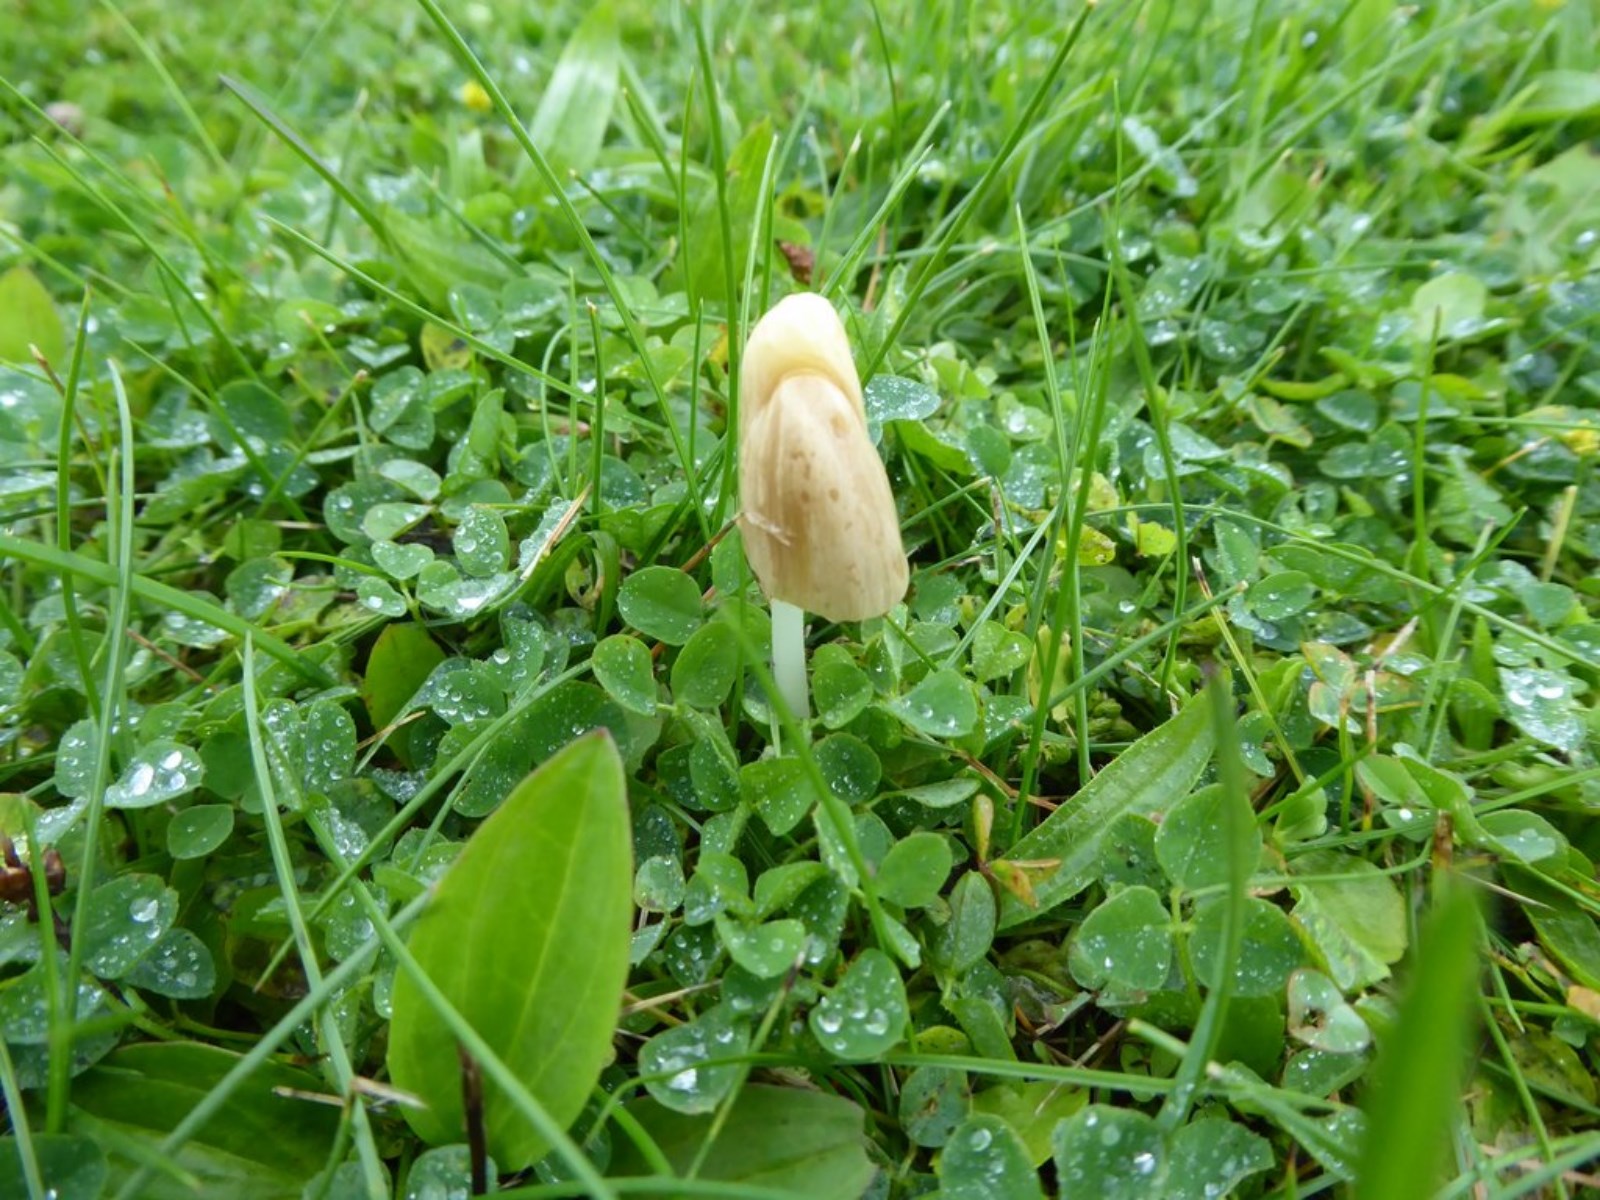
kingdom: Fungi
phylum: Basidiomycota
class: Agaricomycetes
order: Agaricales
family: Bolbitiaceae
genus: Conocybe
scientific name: Conocybe apala
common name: mælkehvid keglehat
